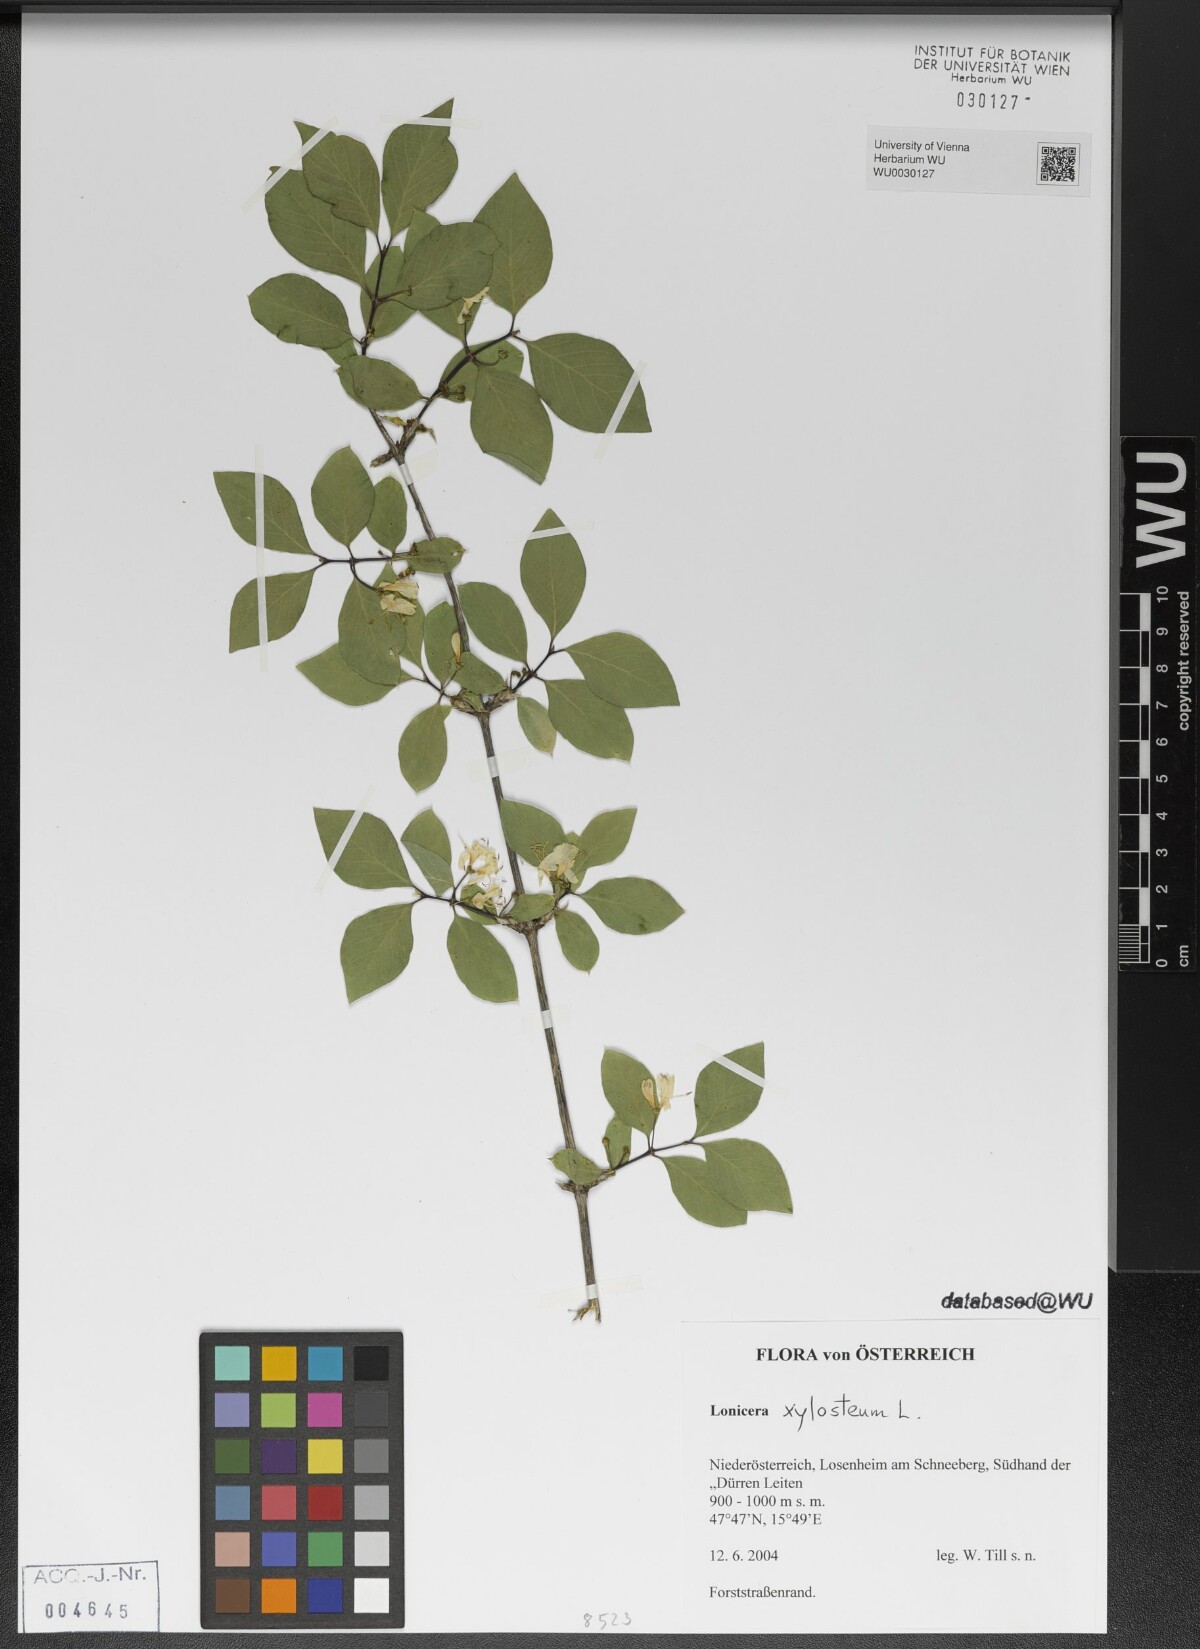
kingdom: Plantae
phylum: Tracheophyta
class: Magnoliopsida
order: Dipsacales
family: Caprifoliaceae
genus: Lonicera
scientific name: Lonicera xylosteum
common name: Fly honeysuckle
